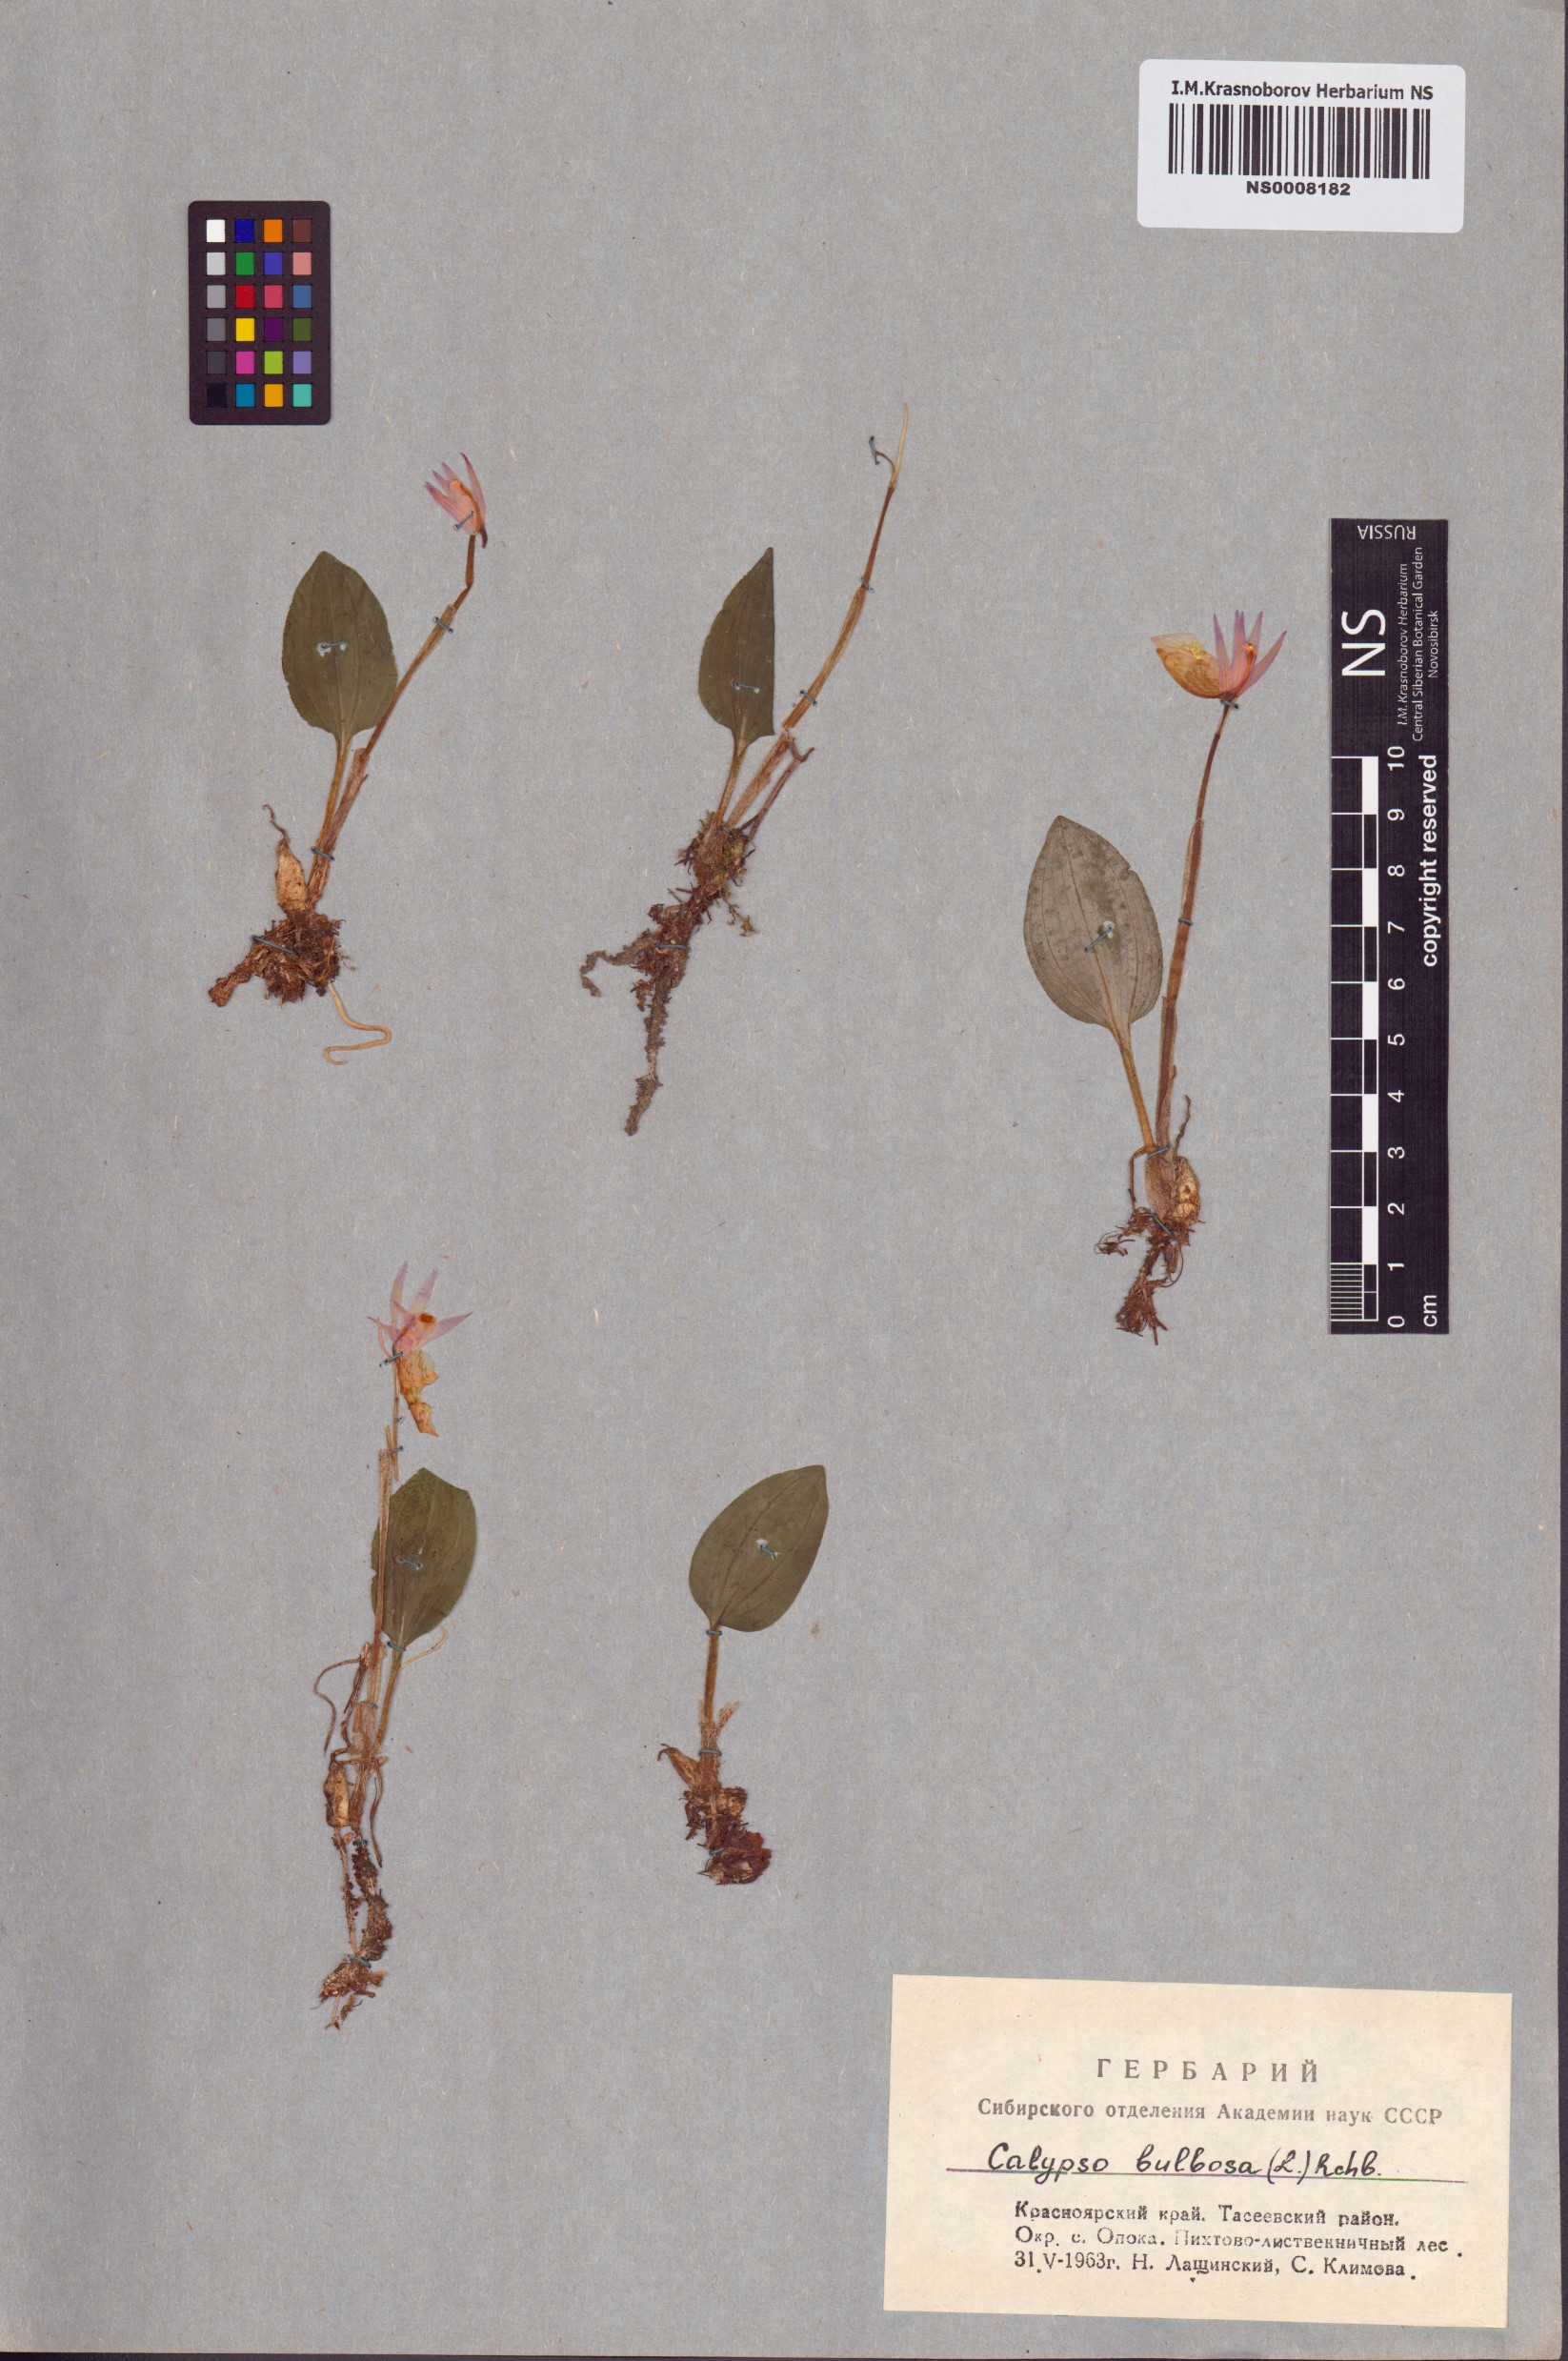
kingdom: Plantae
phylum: Tracheophyta
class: Liliopsida
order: Asparagales
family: Orchidaceae
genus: Calypso
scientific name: Calypso bulbosa
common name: Calypso
